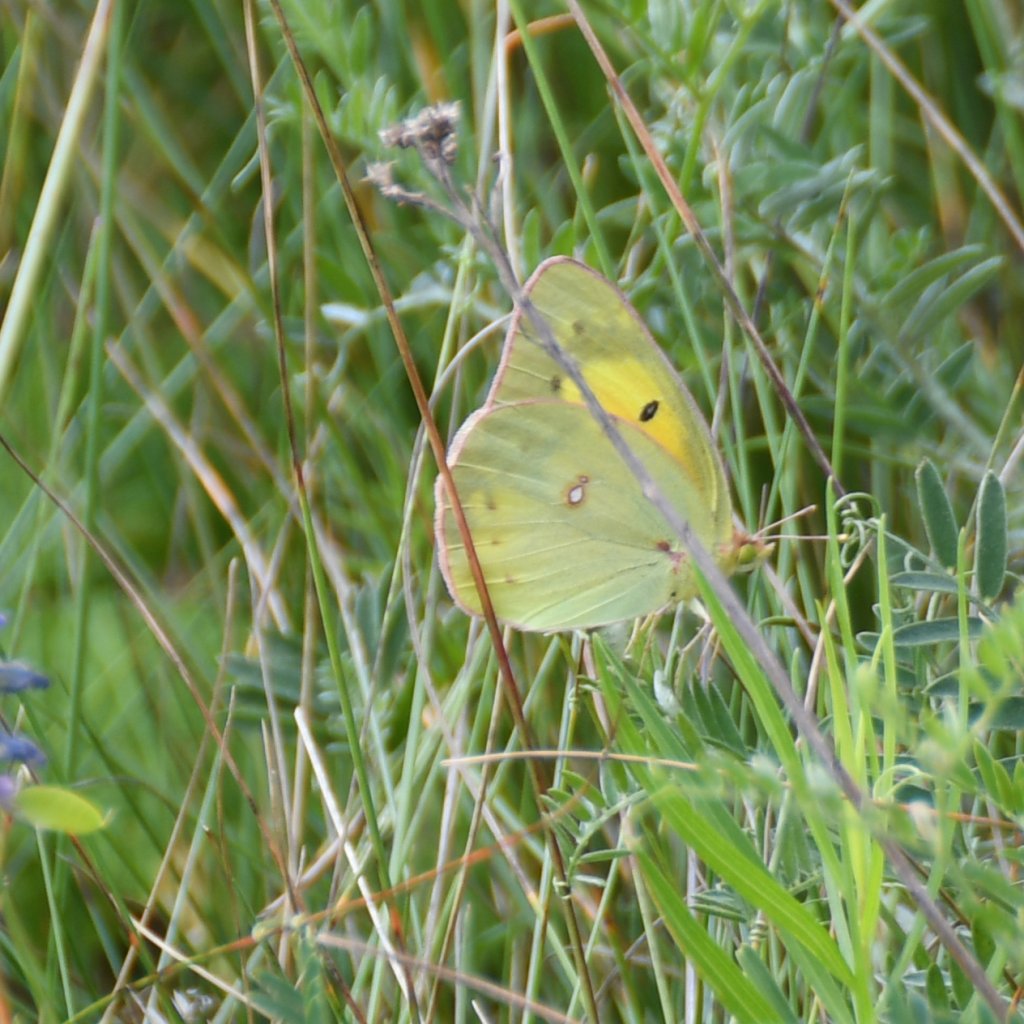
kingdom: Animalia
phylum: Arthropoda
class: Insecta
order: Lepidoptera
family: Pieridae
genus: Colias
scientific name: Colias philodice
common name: Clouded Sulphur
